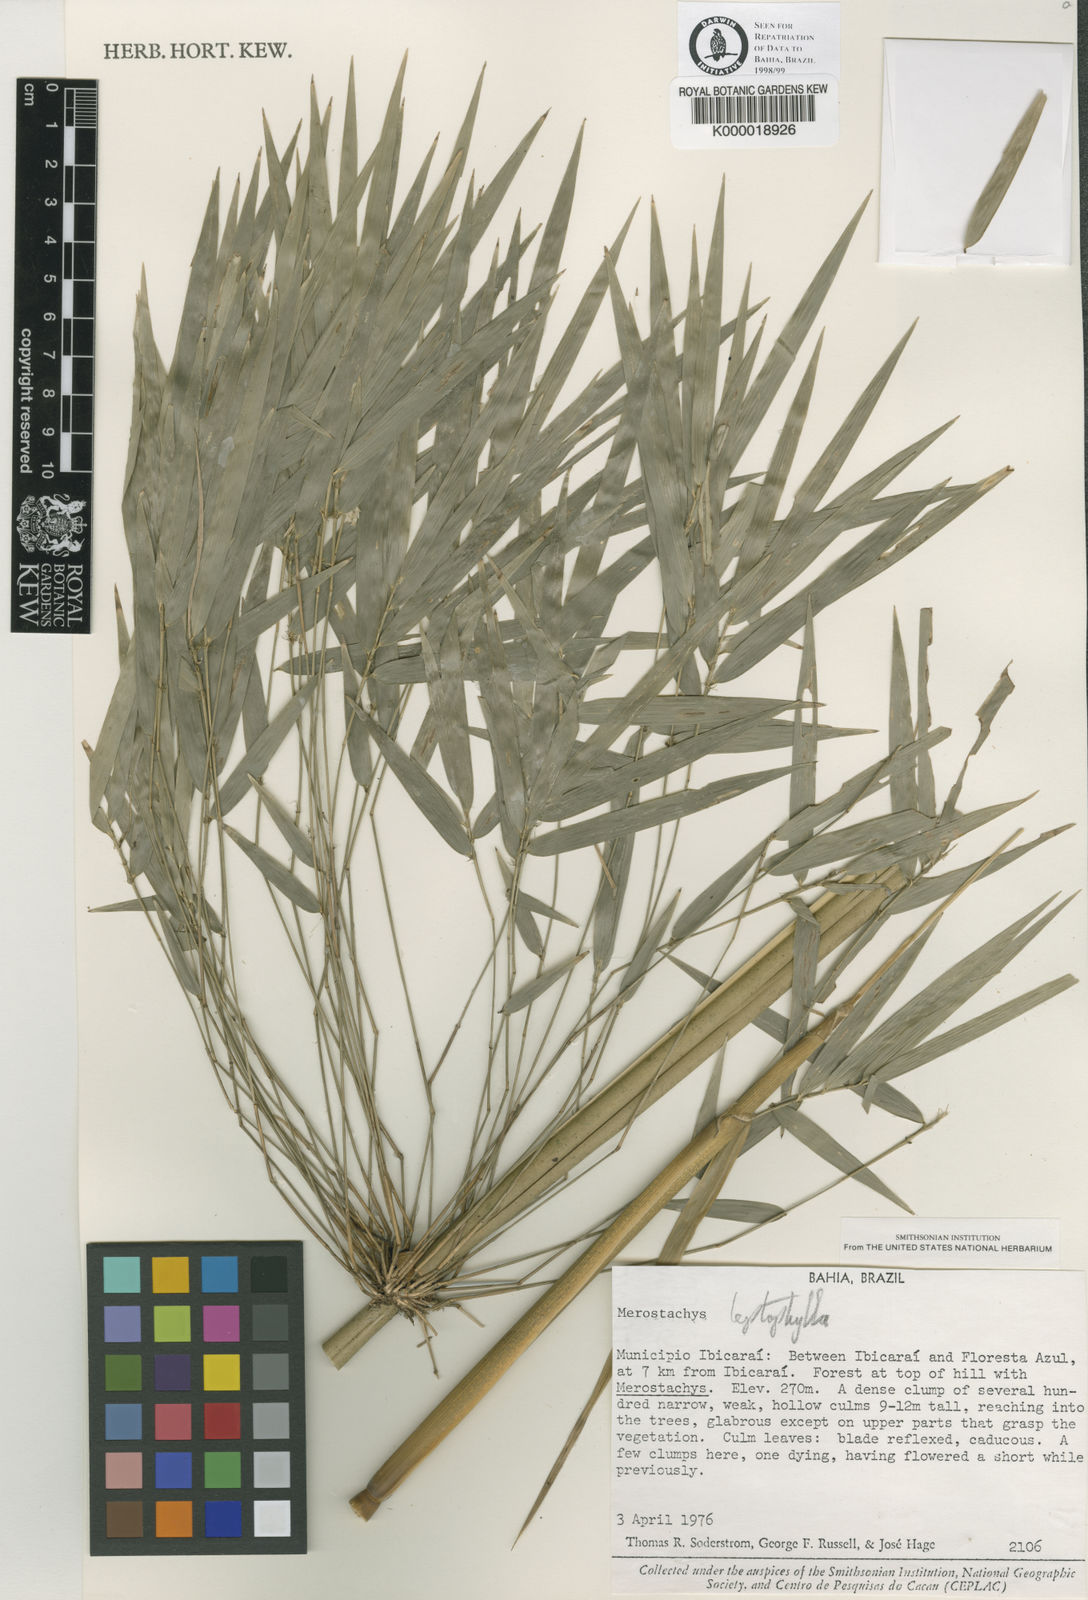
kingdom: Plantae
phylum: Tracheophyta
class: Liliopsida
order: Poales
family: Poaceae
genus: Merostachys
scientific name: Merostachys leptophylla
